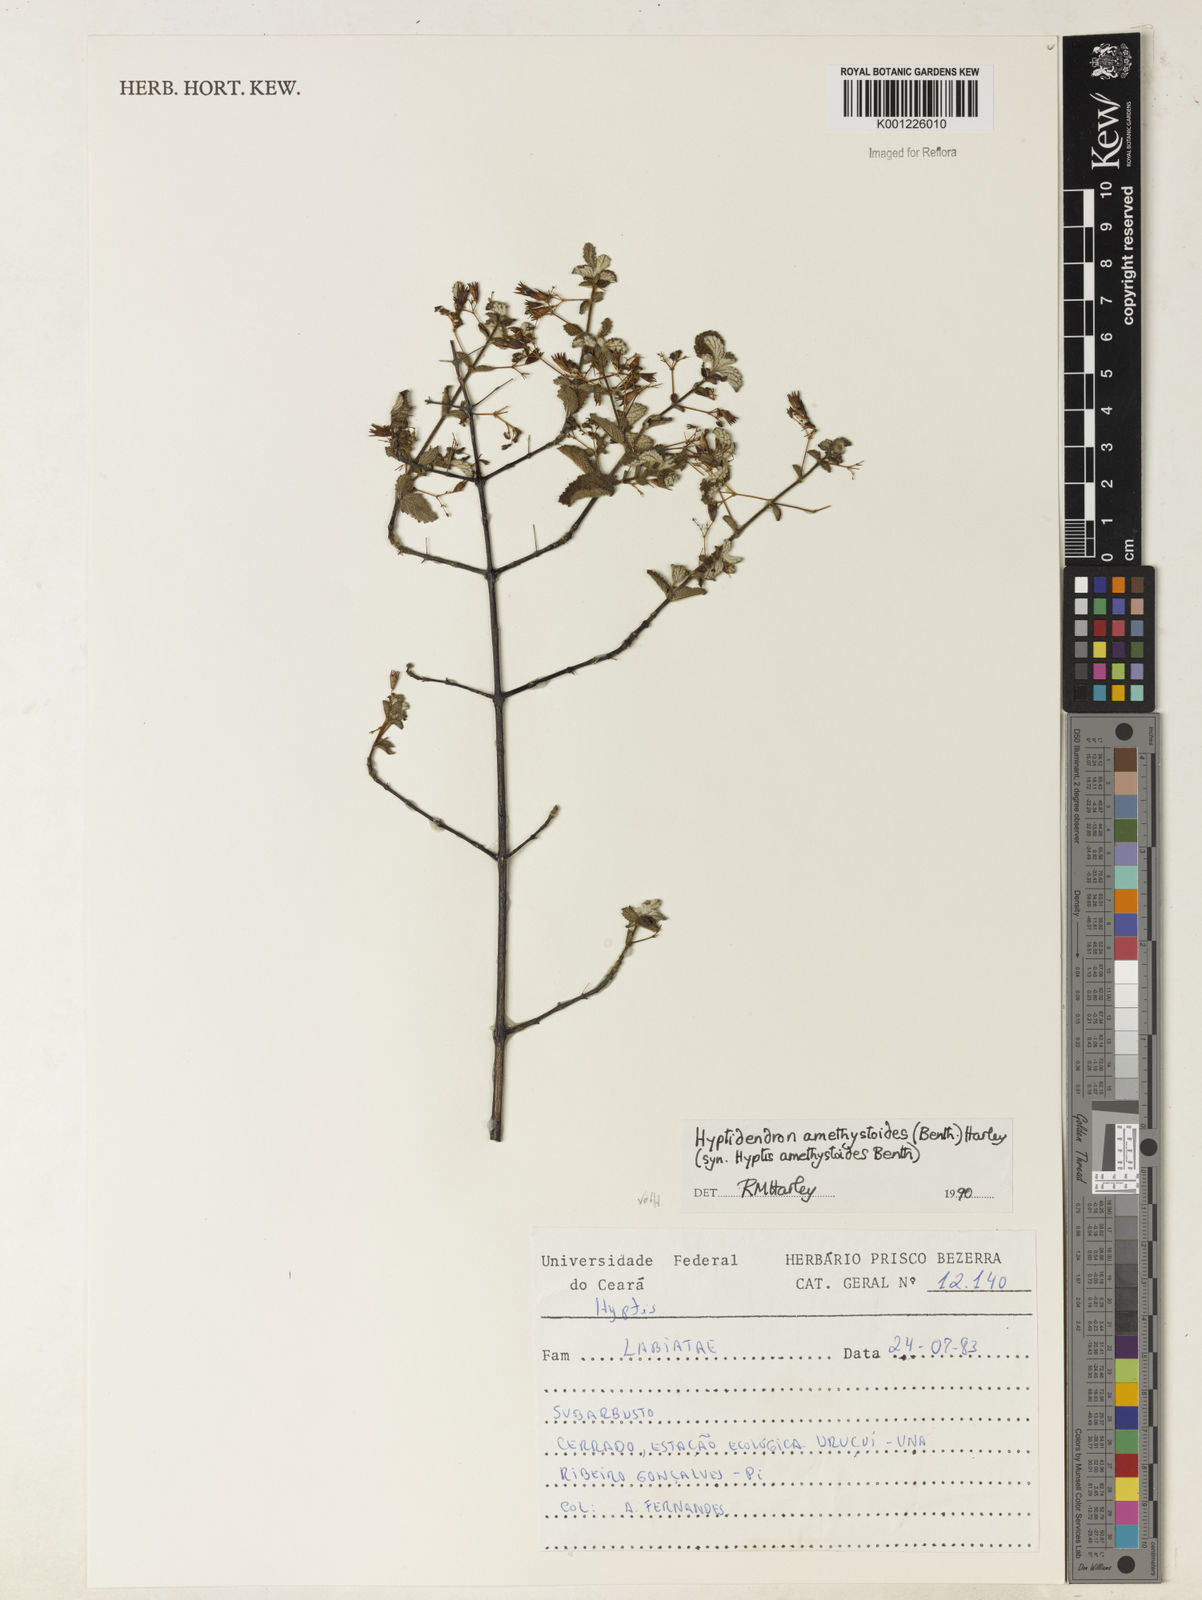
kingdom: Plantae
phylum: Tracheophyta
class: Magnoliopsida
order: Lamiales
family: Lamiaceae
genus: Hyptidendron
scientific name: Hyptidendron amethystoides
